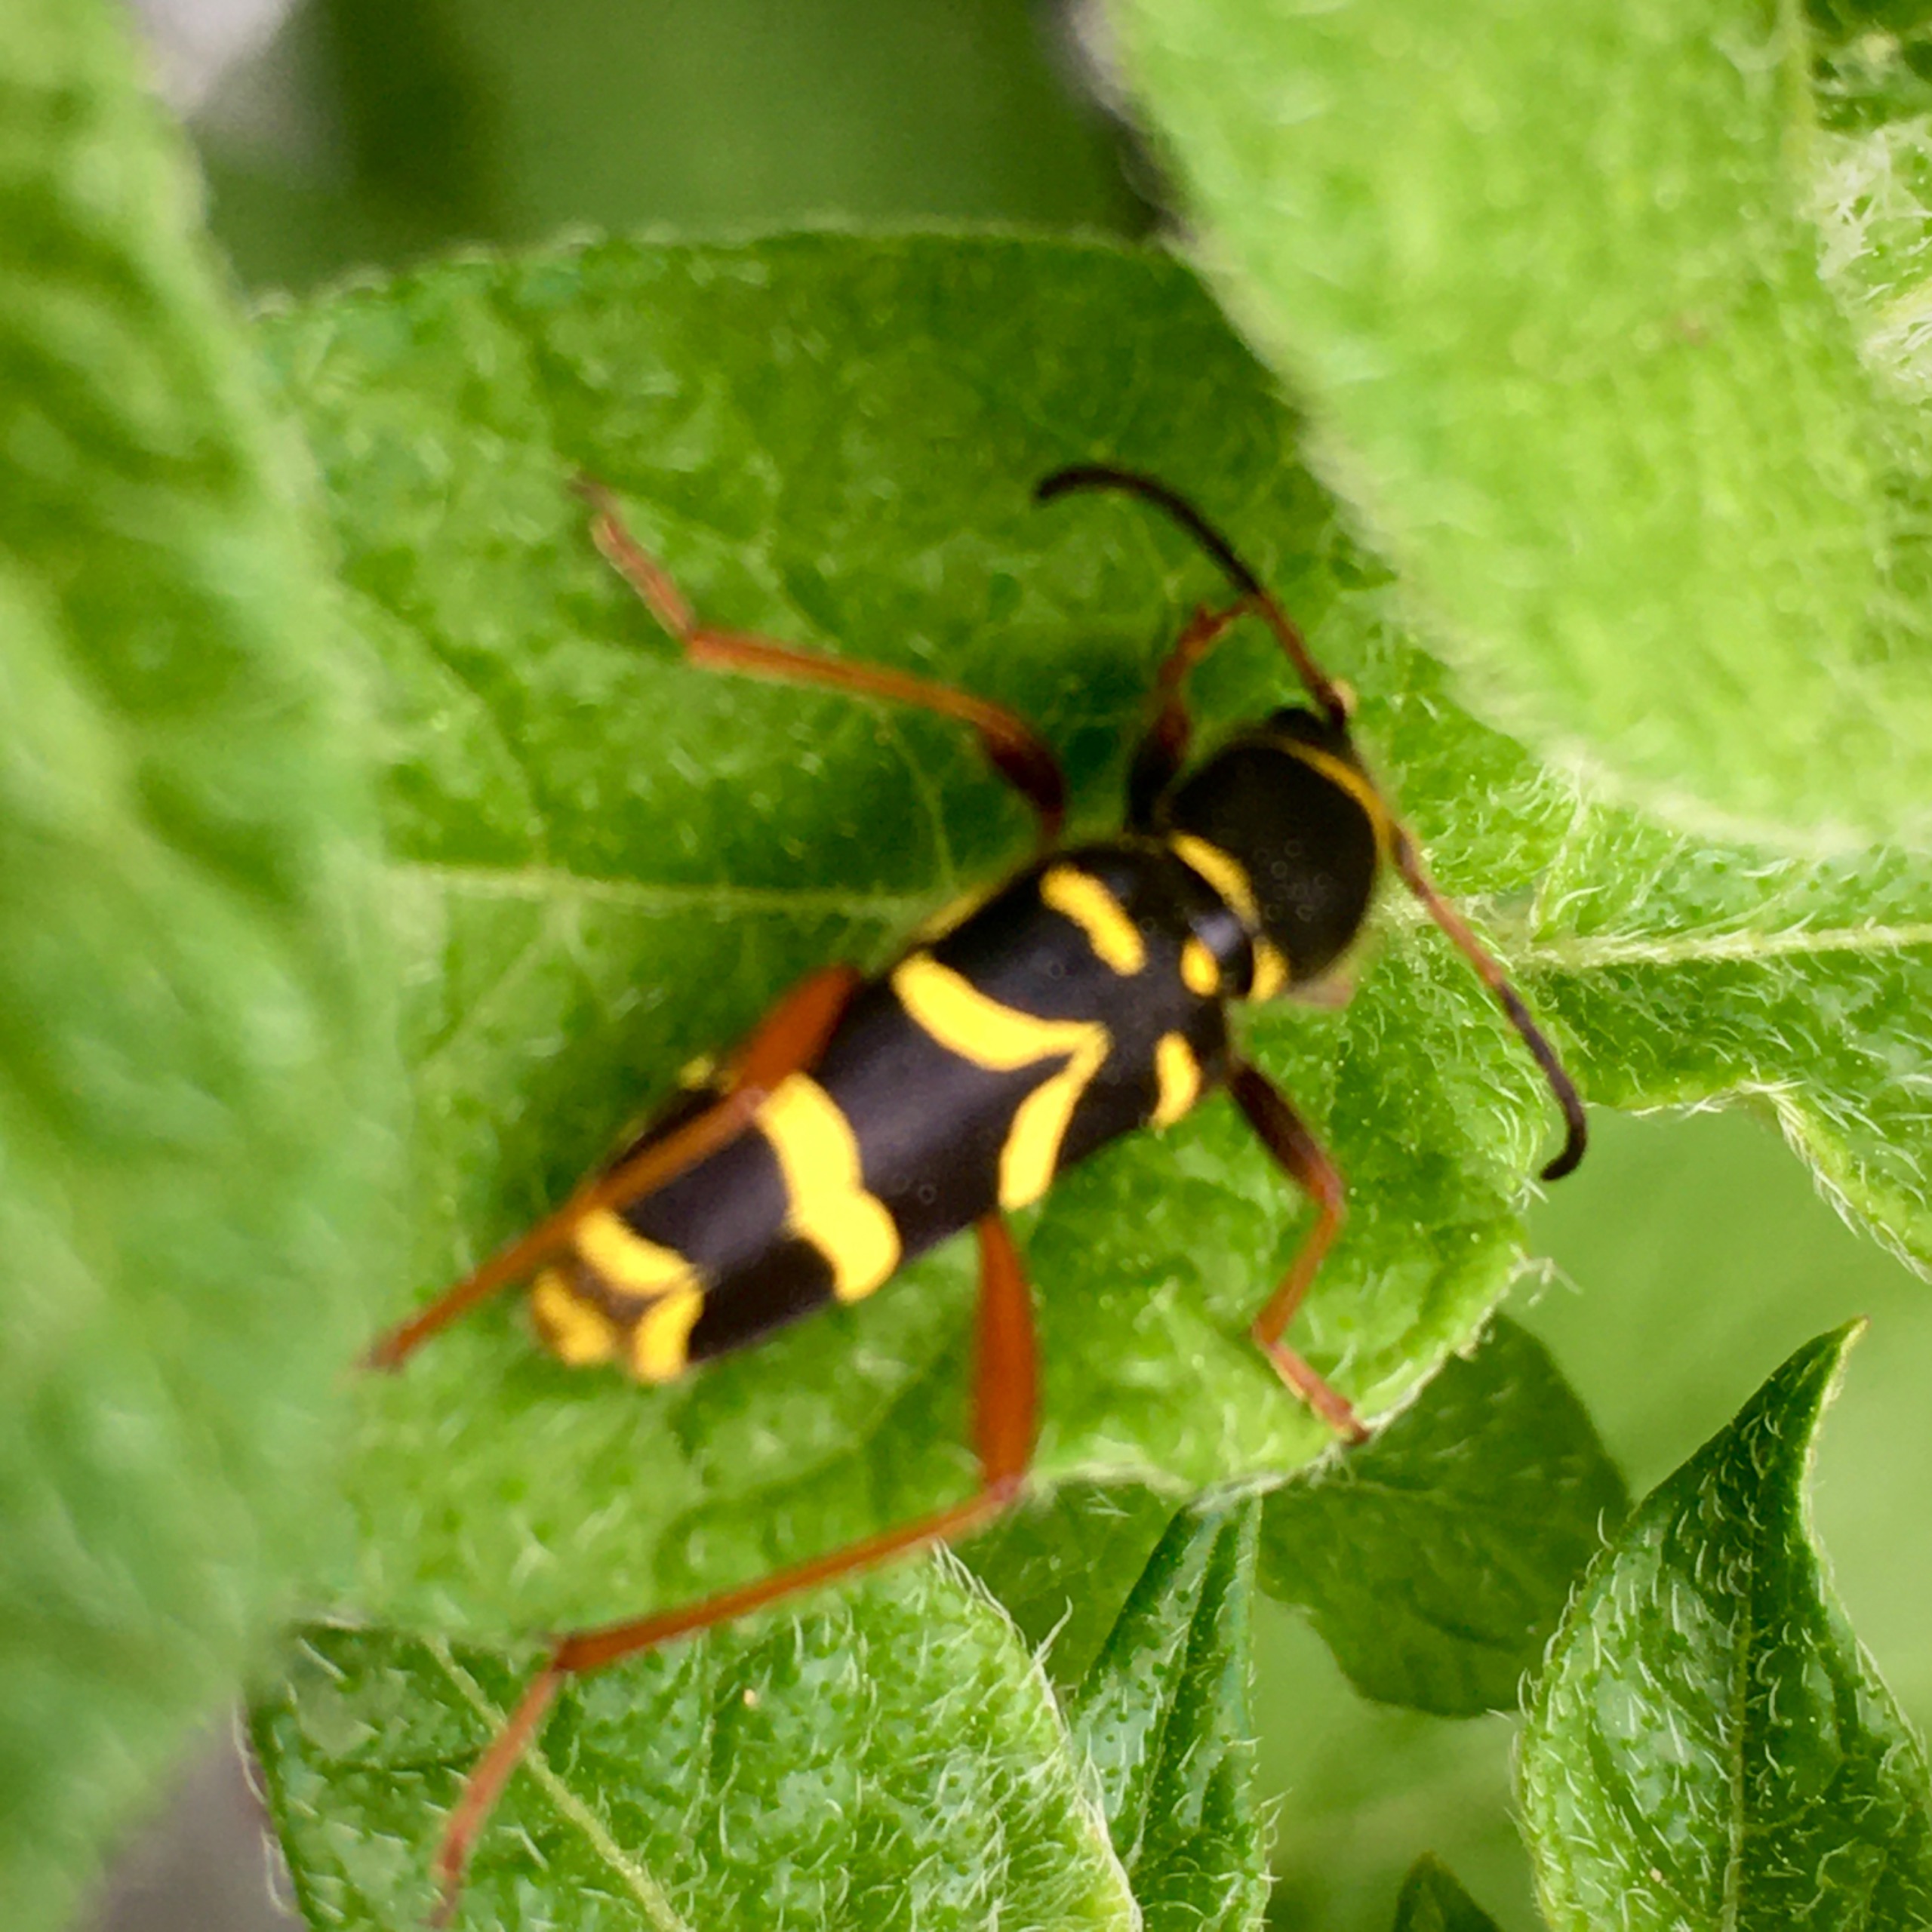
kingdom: Animalia
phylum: Arthropoda
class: Insecta
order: Coleoptera
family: Cerambycidae
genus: Clytus
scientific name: Clytus arietis
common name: Lille hvepsebuk
